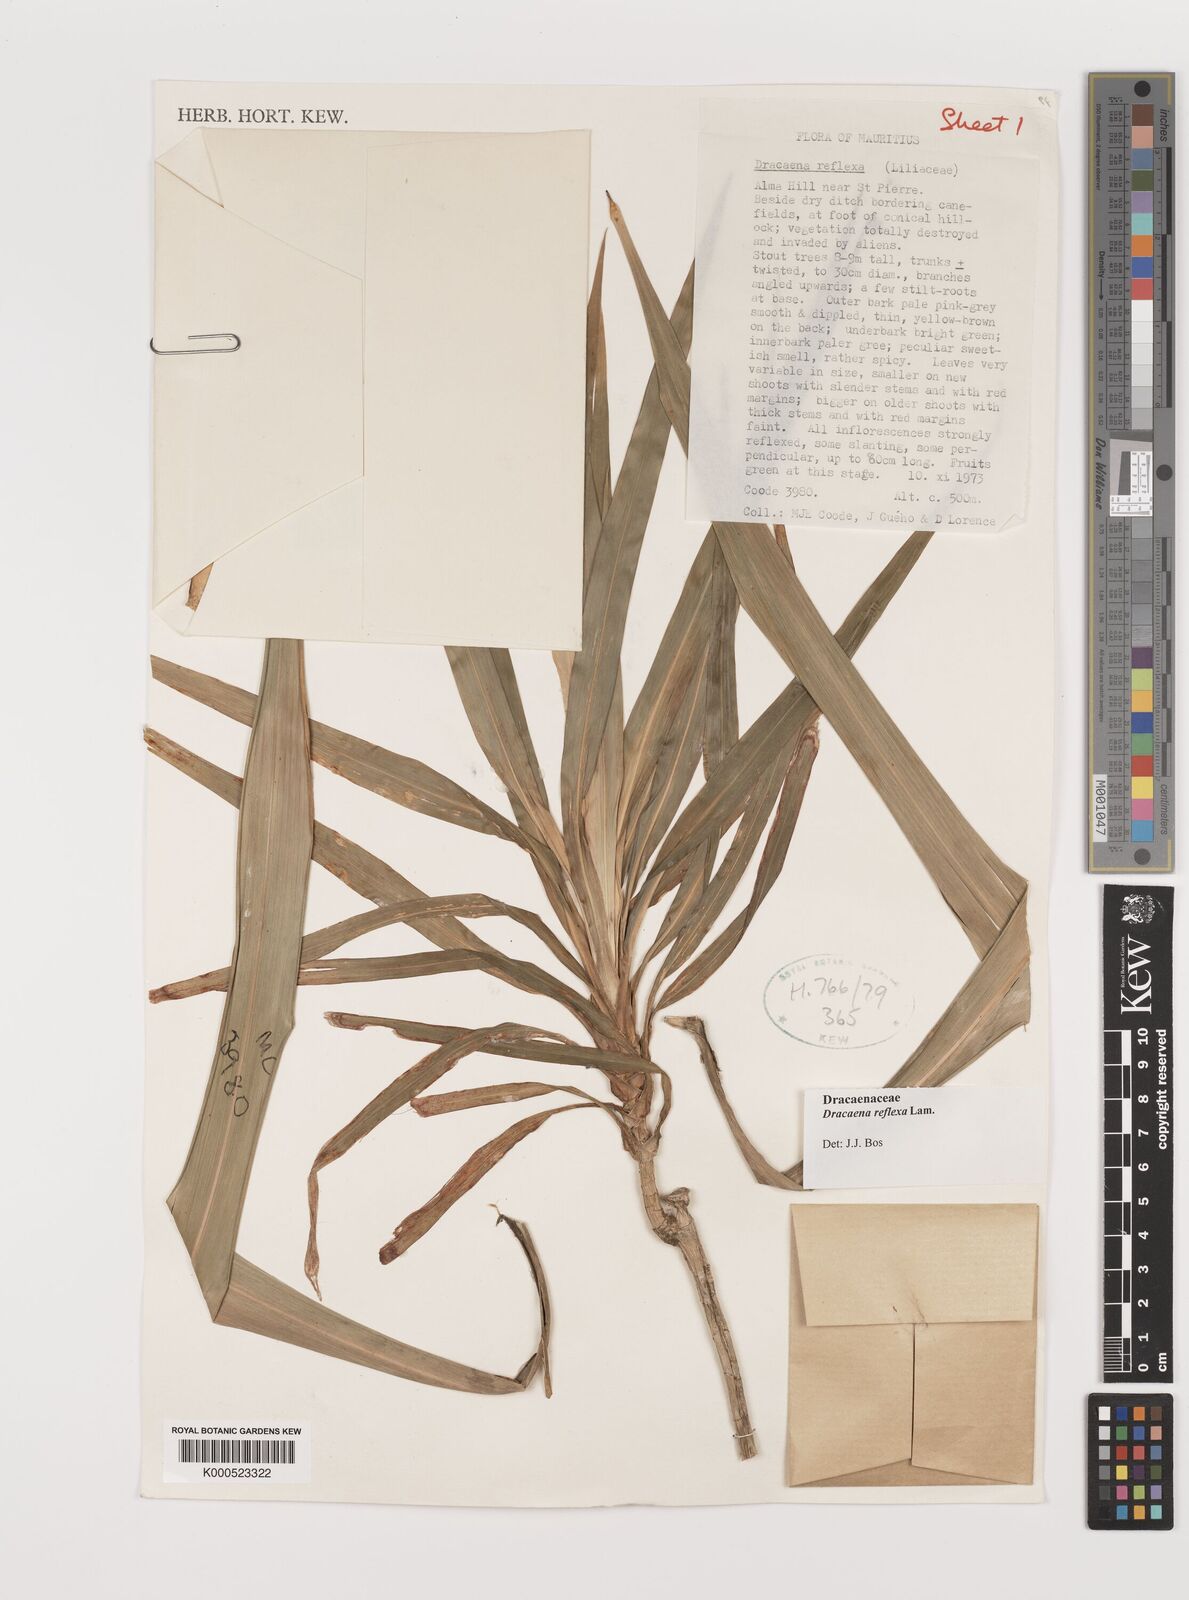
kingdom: Plantae
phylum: Tracheophyta
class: Liliopsida
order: Asparagales
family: Asparagaceae
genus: Dracaena
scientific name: Dracaena reflexa
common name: Song-of-india
